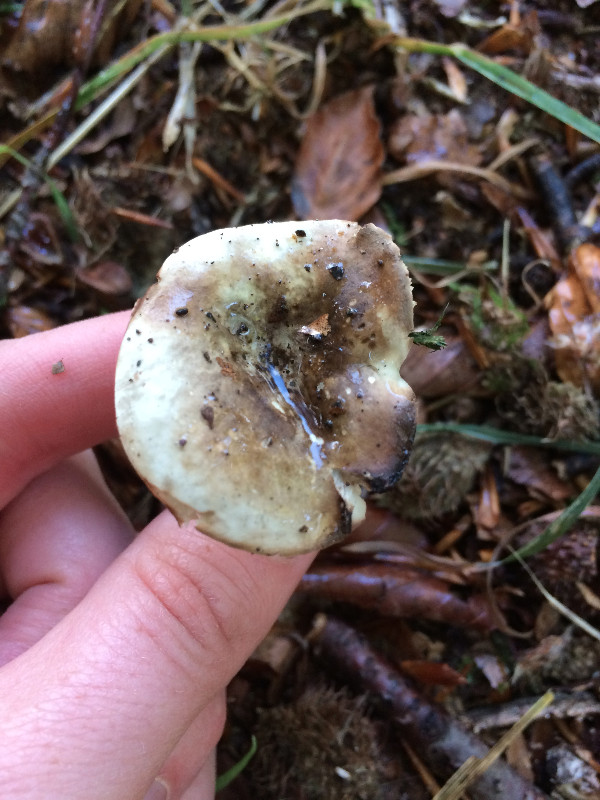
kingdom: Fungi
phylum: Basidiomycota
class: Agaricomycetes
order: Russulales
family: Russulaceae
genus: Russula
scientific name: Russula adusta
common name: sværtende skørhat
